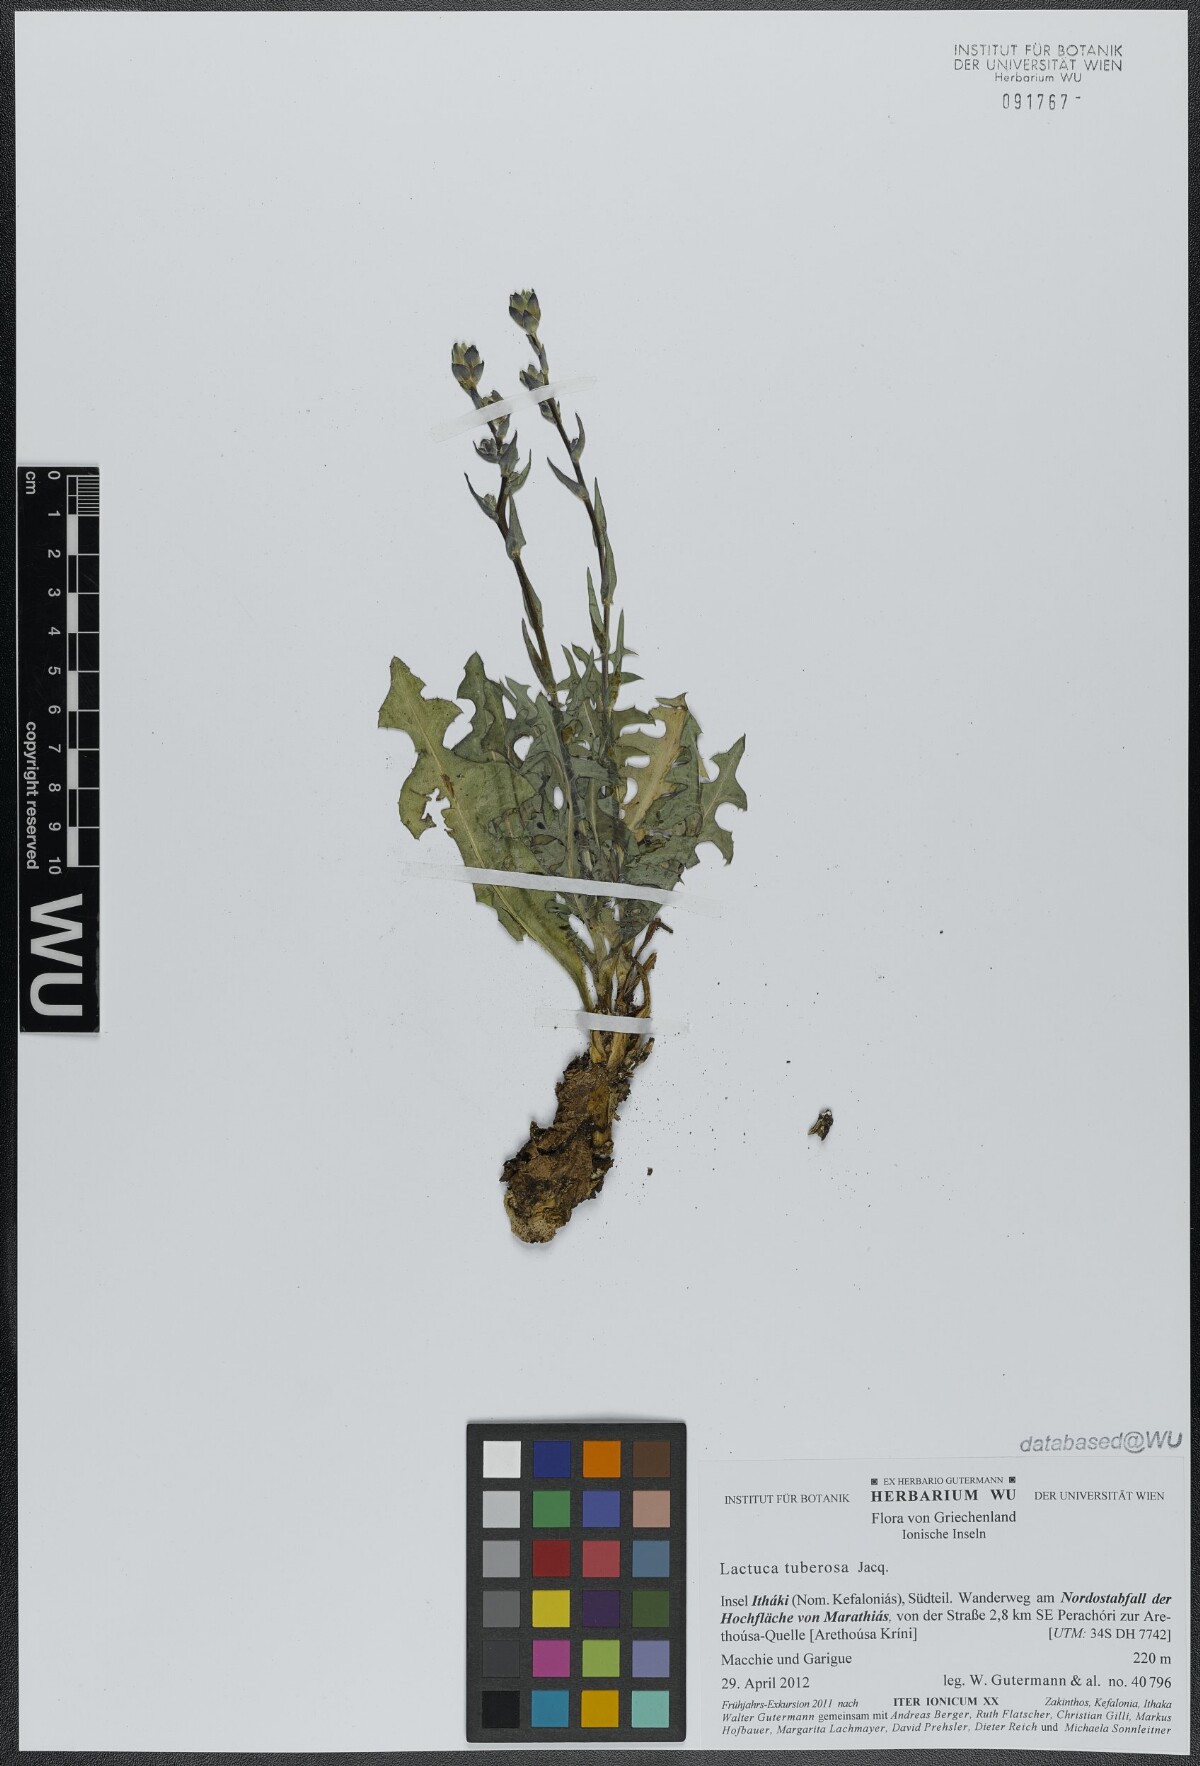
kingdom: Plantae
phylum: Tracheophyta
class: Magnoliopsida
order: Asterales
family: Asteraceae
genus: Lactuca
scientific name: Lactuca tuberosa
